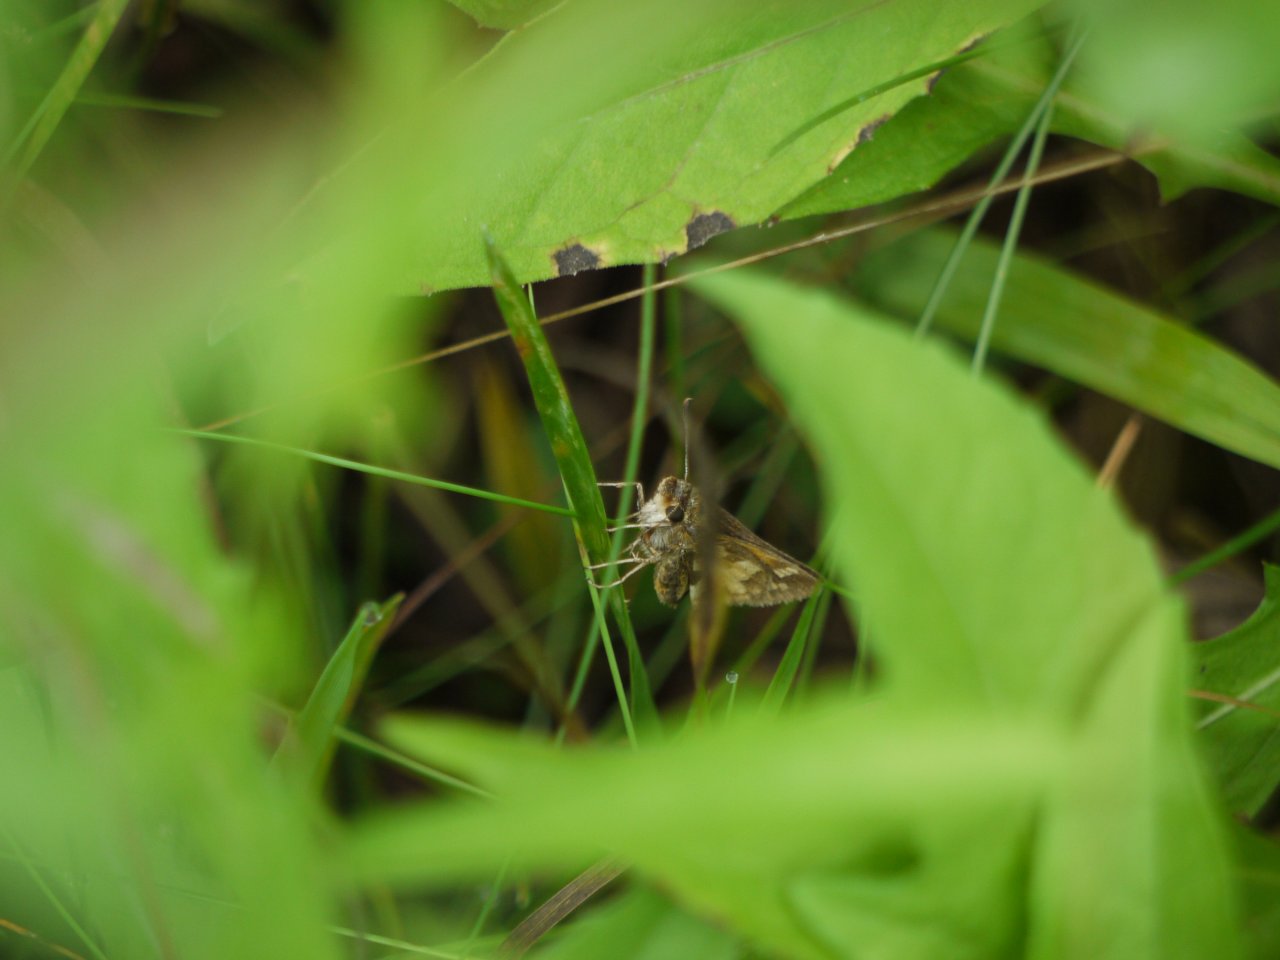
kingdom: Animalia
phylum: Arthropoda
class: Insecta
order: Lepidoptera
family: Hesperiidae
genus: Polites
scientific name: Polites coras
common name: Peck's Skipper
